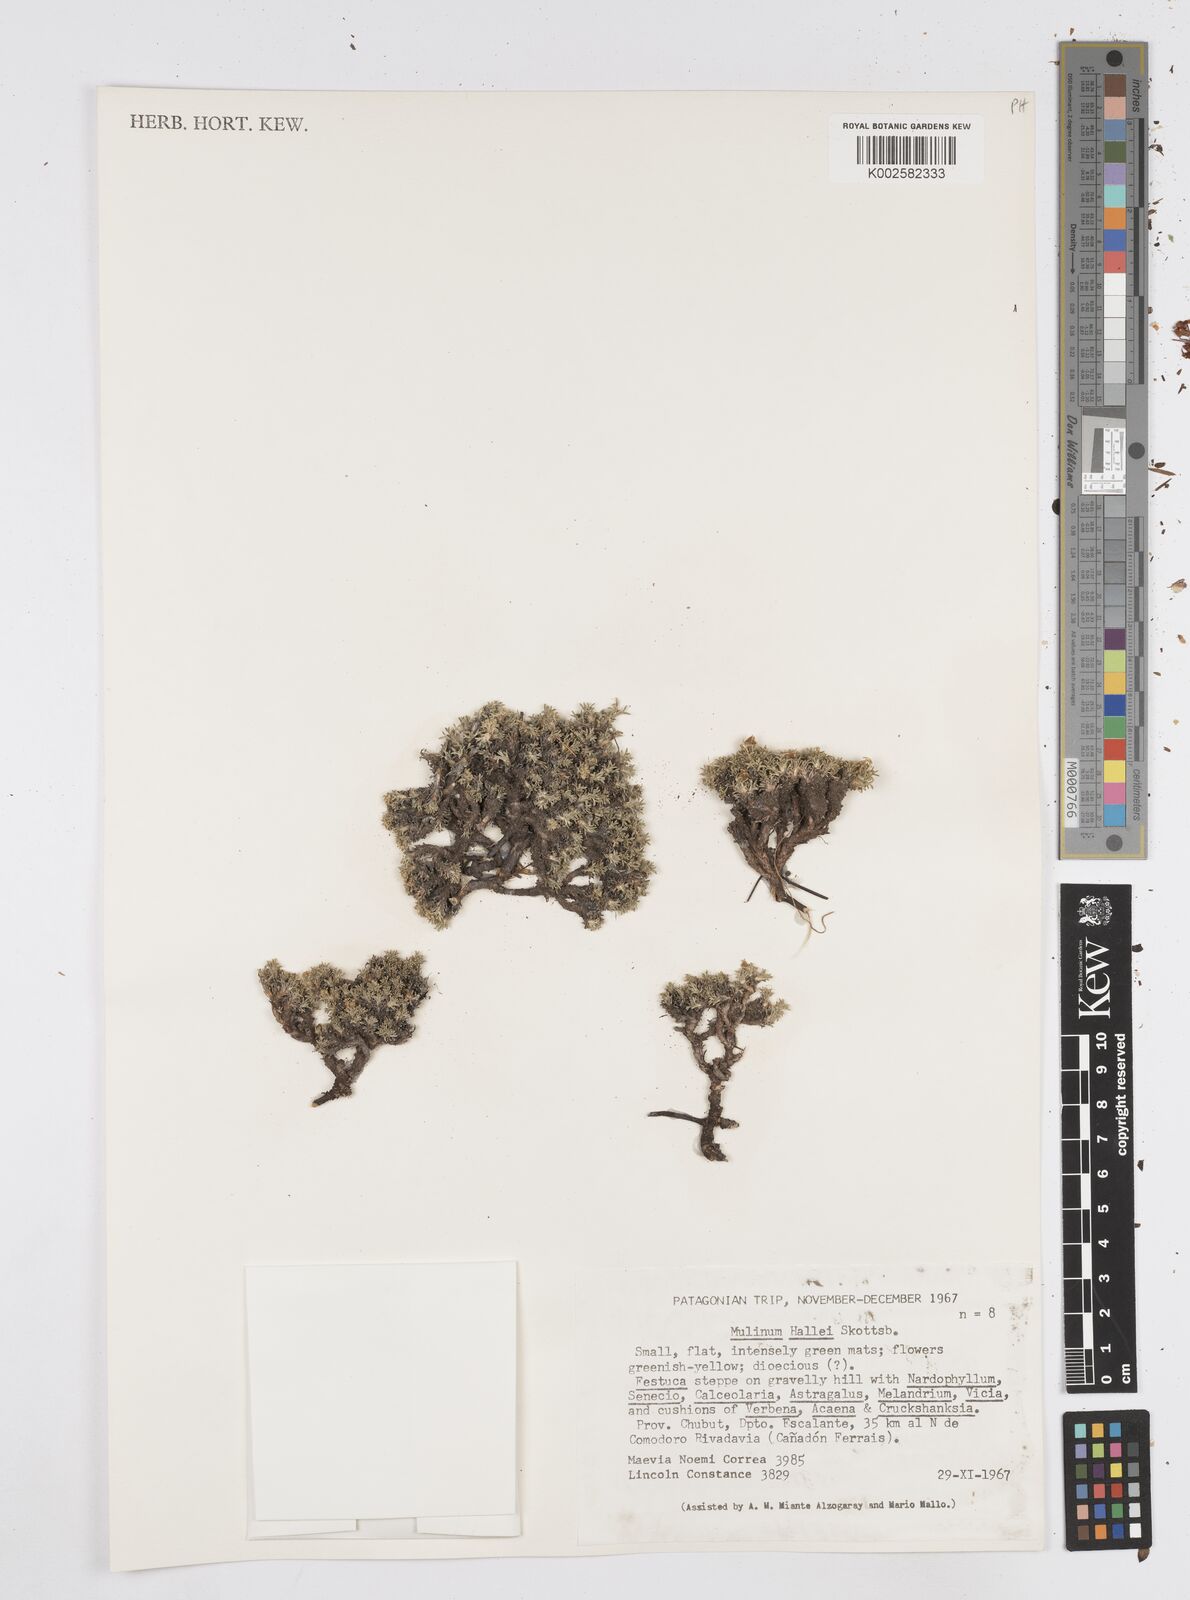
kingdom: Plantae
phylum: Tracheophyta
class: Magnoliopsida
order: Apiales
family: Apiaceae
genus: Azorella
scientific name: Azorella hallei
